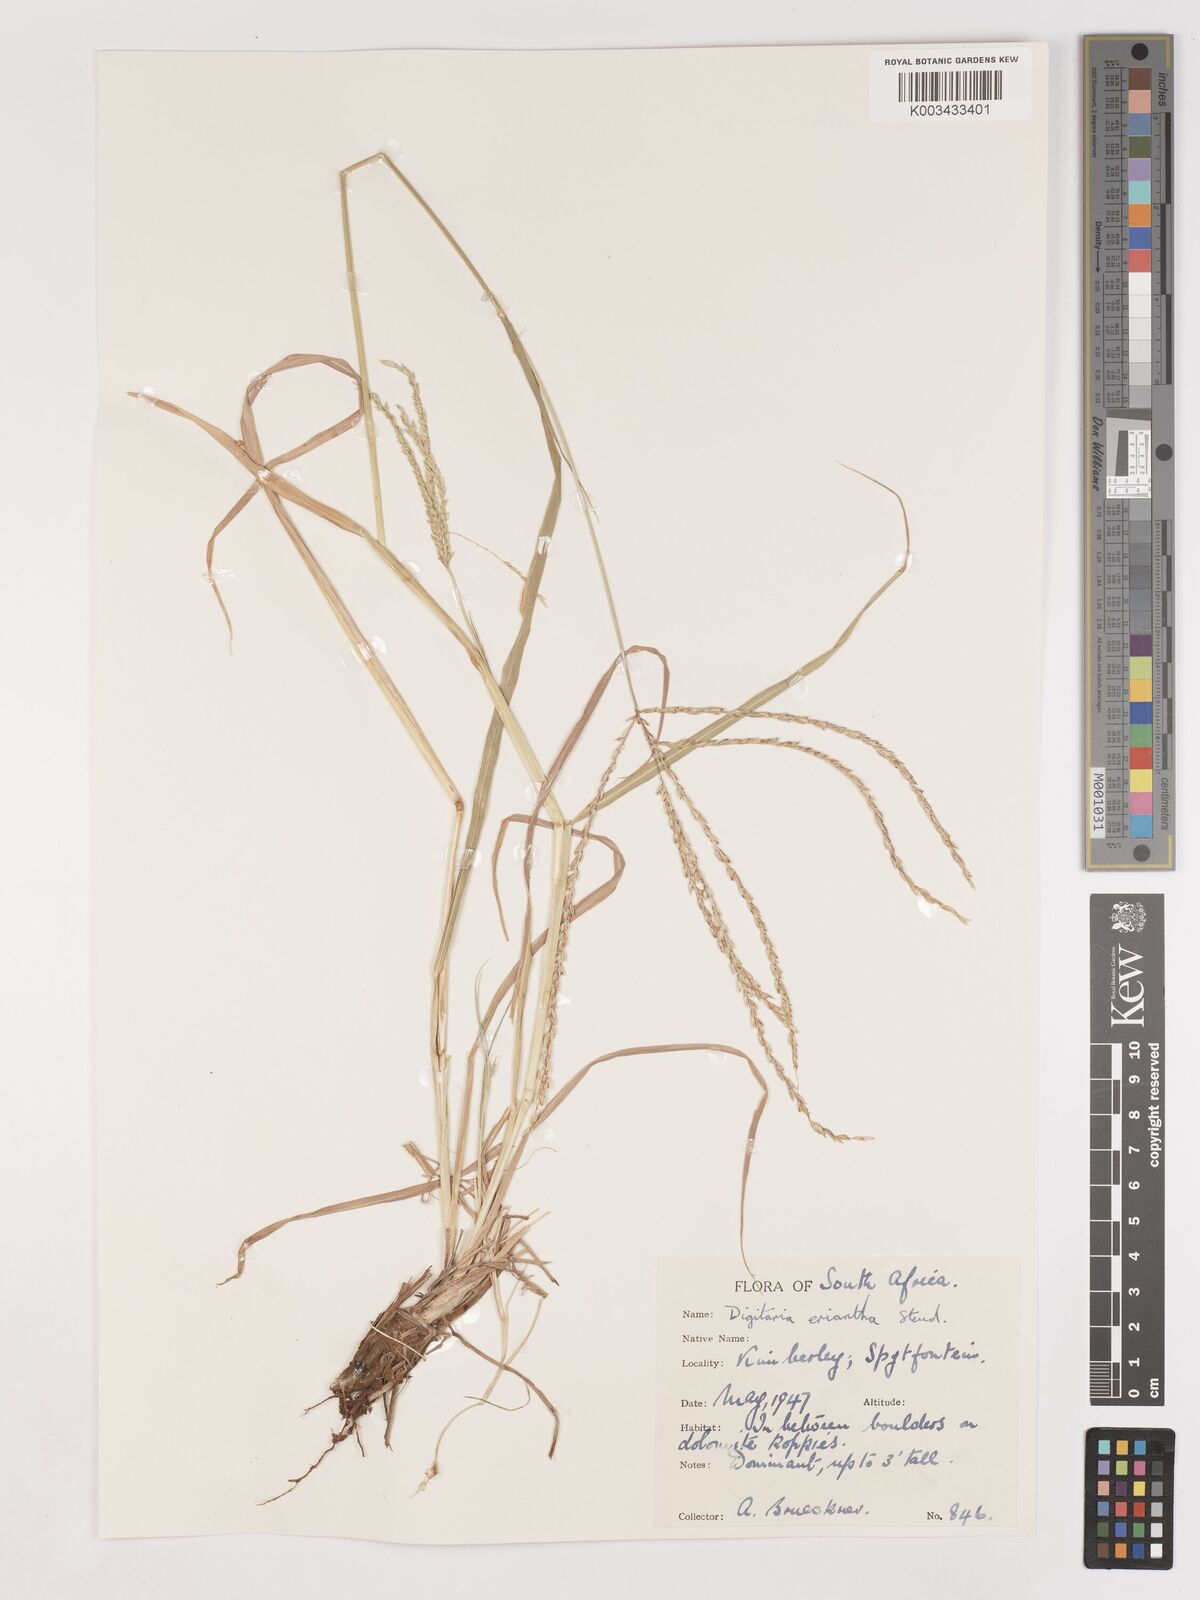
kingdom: Plantae
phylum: Tracheophyta
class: Liliopsida
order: Poales
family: Poaceae
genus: Digitaria
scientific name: Digitaria eriantha
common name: Digitgrass
